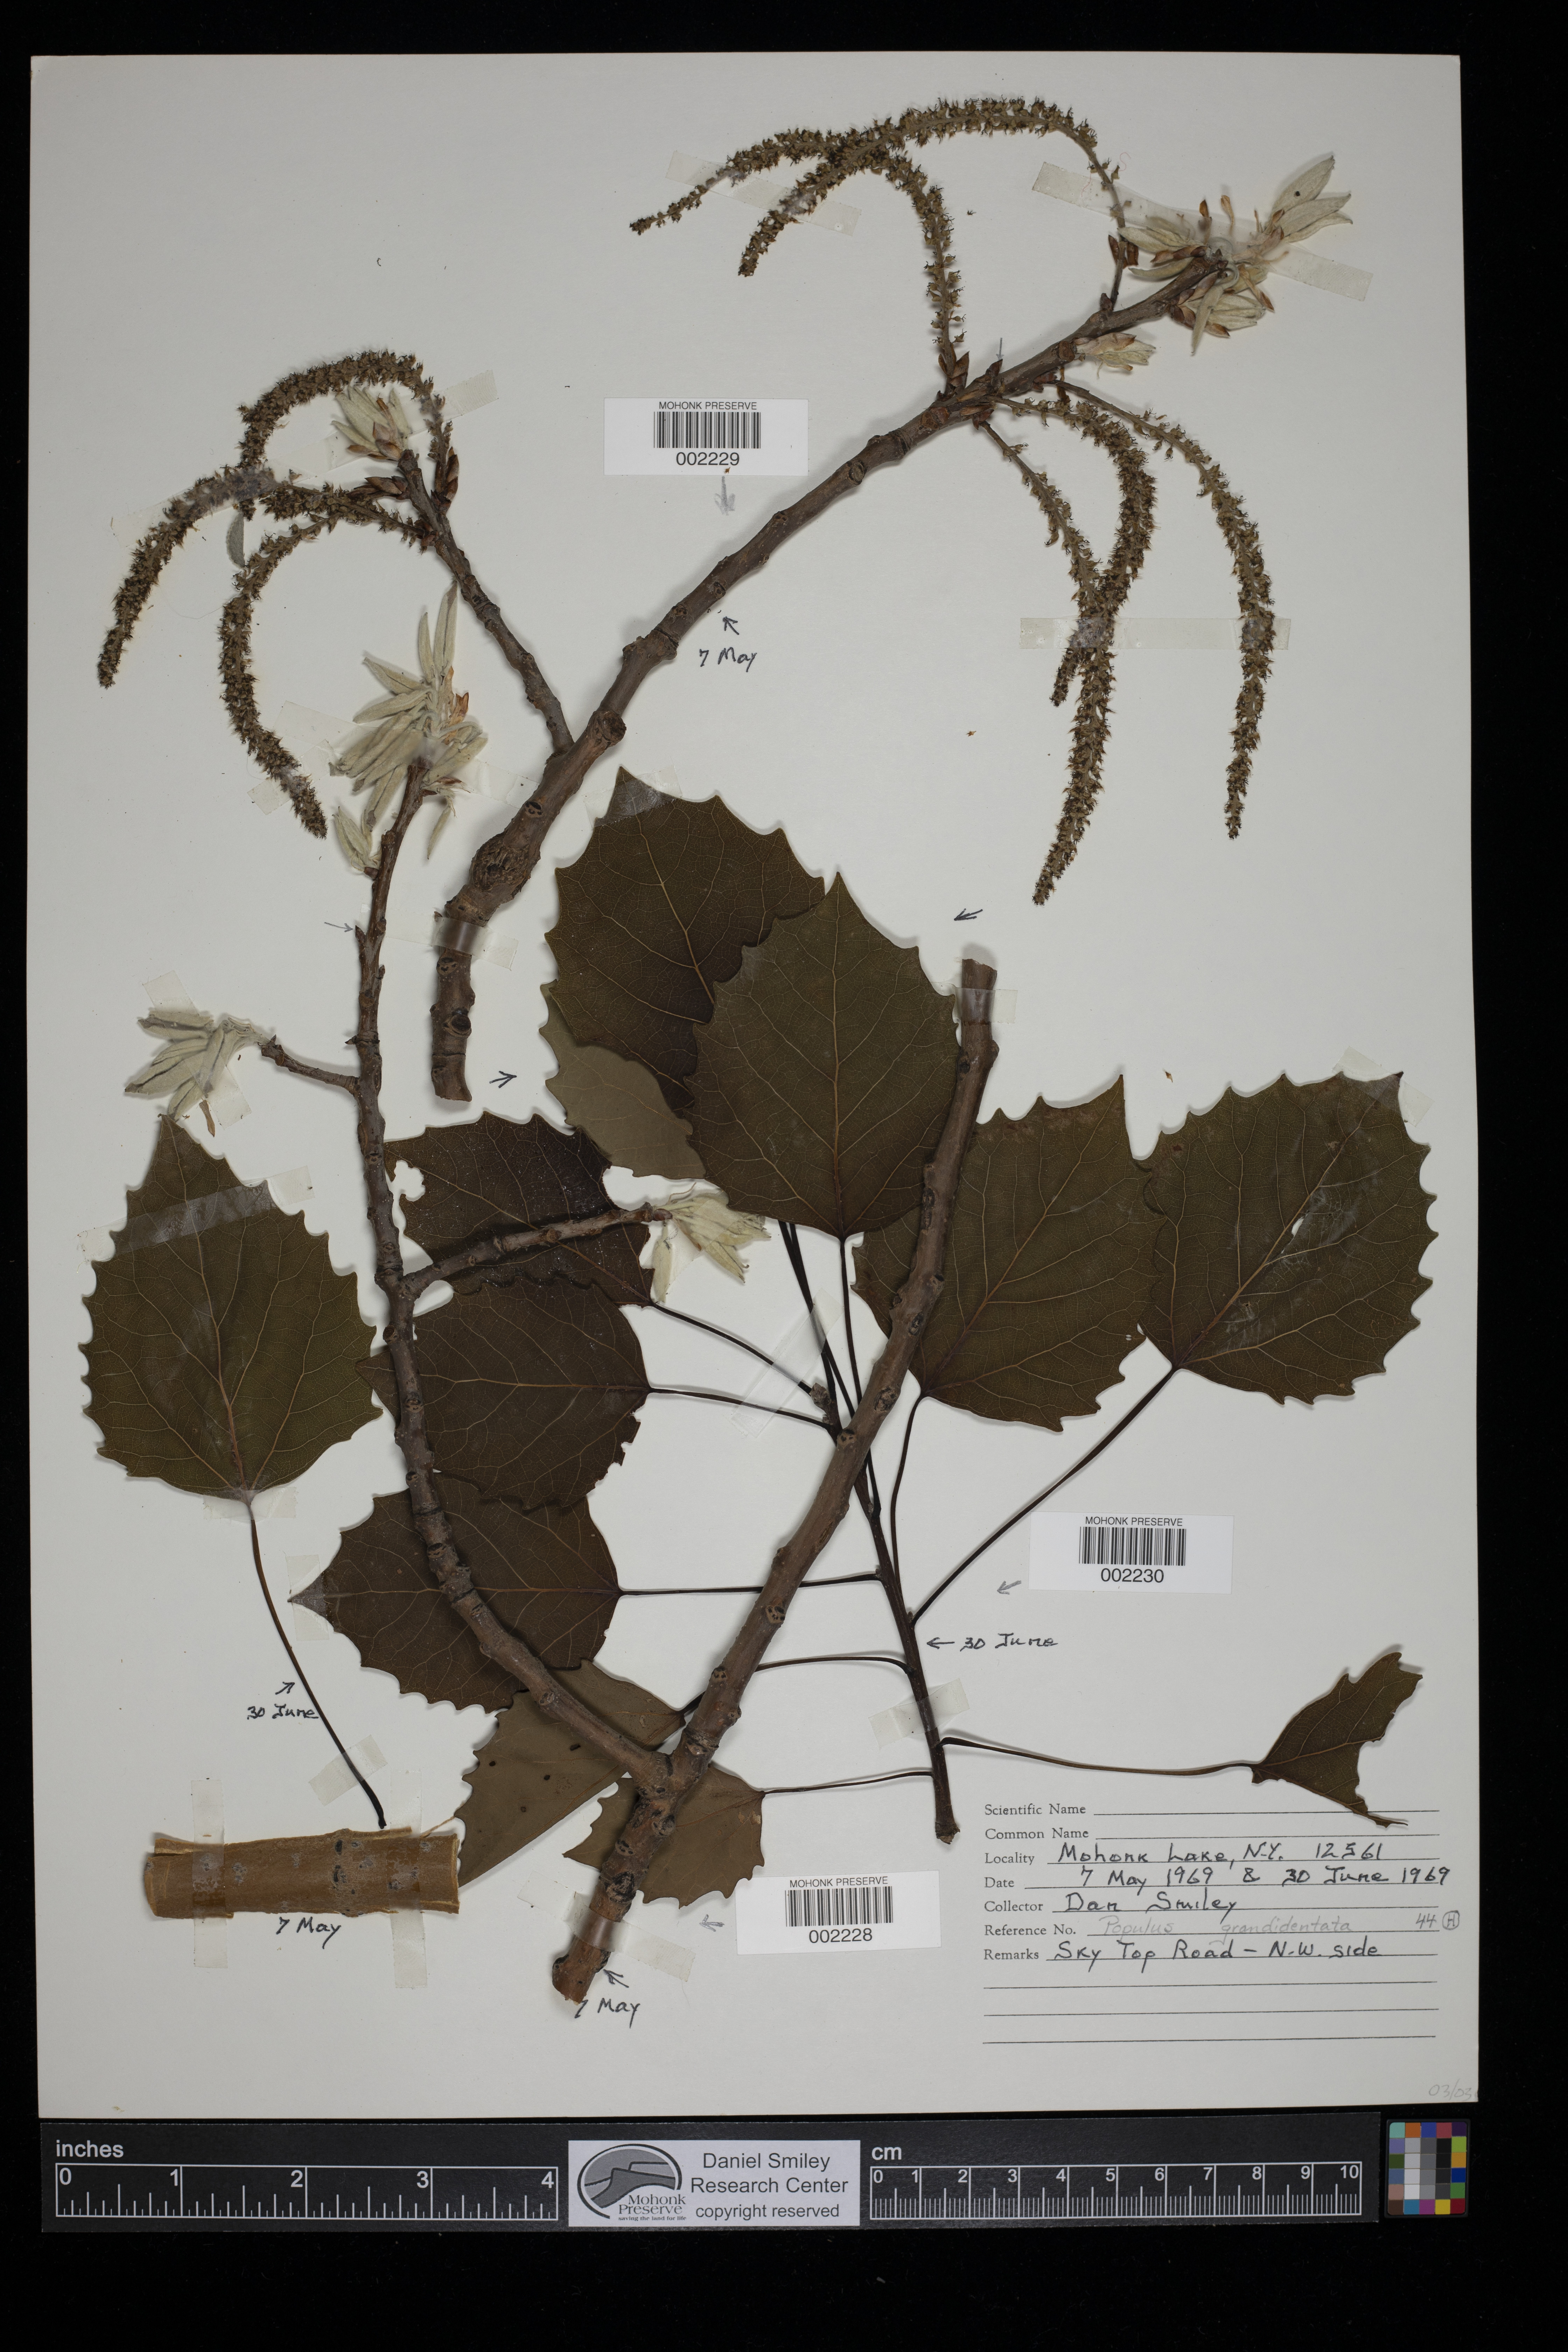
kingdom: Plantae
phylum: Tracheophyta
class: Magnoliopsida
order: Malpighiales
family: Salicaceae
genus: Populus
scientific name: Populus grandidentata
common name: Bigtooth aspen
